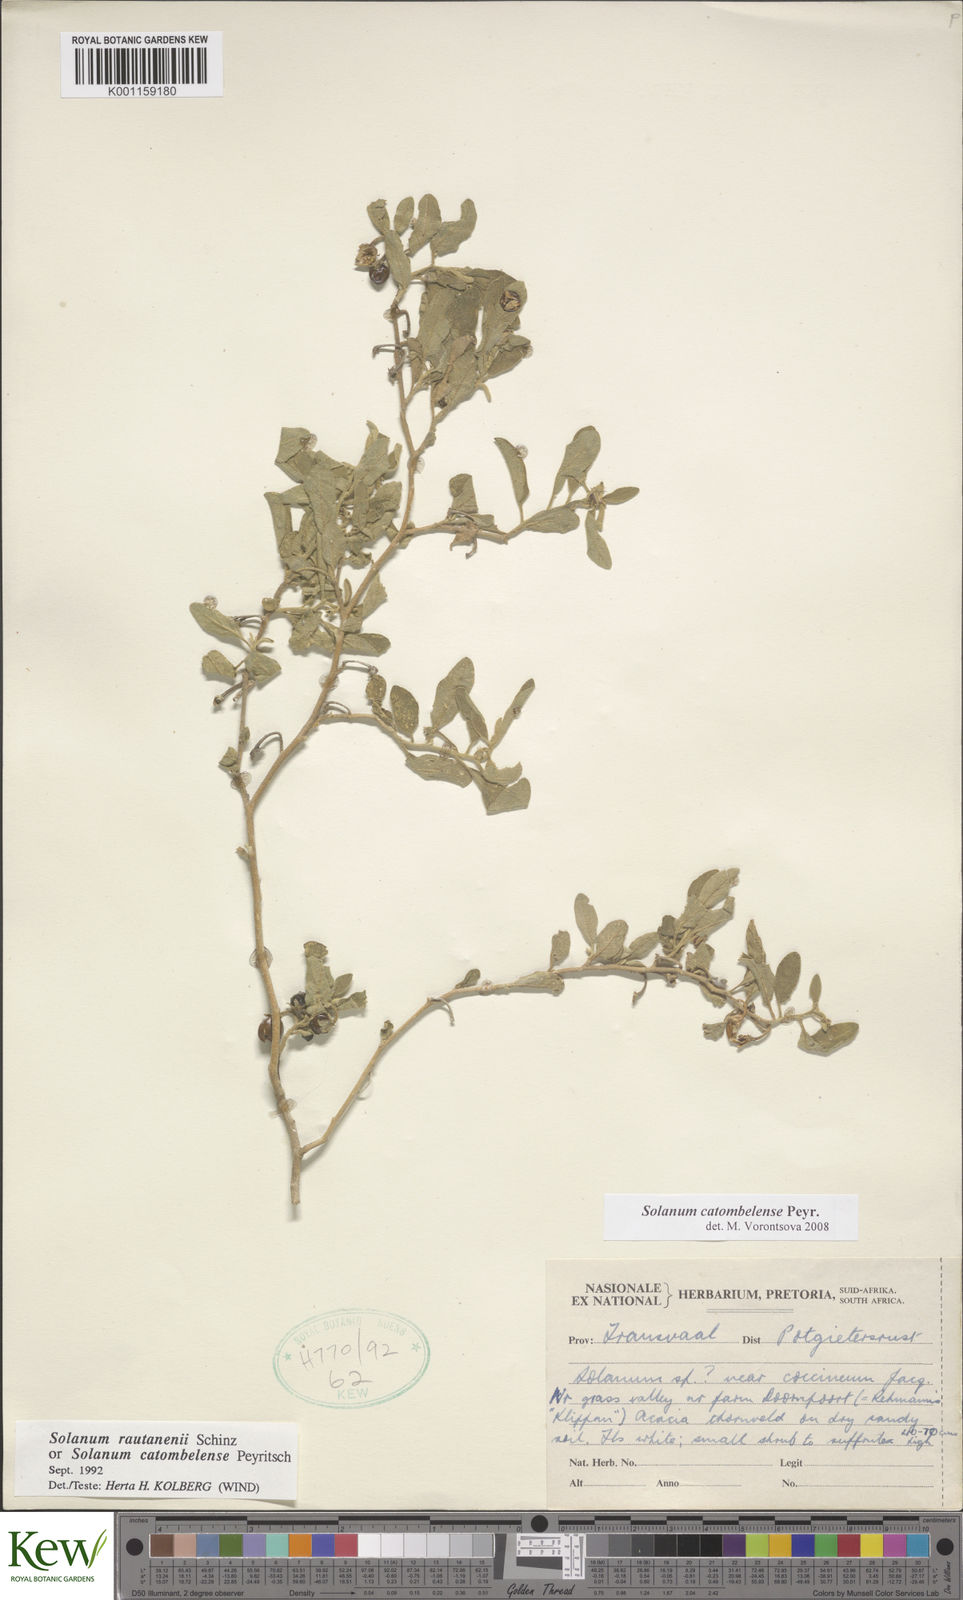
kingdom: Plantae
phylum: Tracheophyta
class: Magnoliopsida
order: Solanales
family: Solanaceae
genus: Solanum
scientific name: Solanum catombelense
